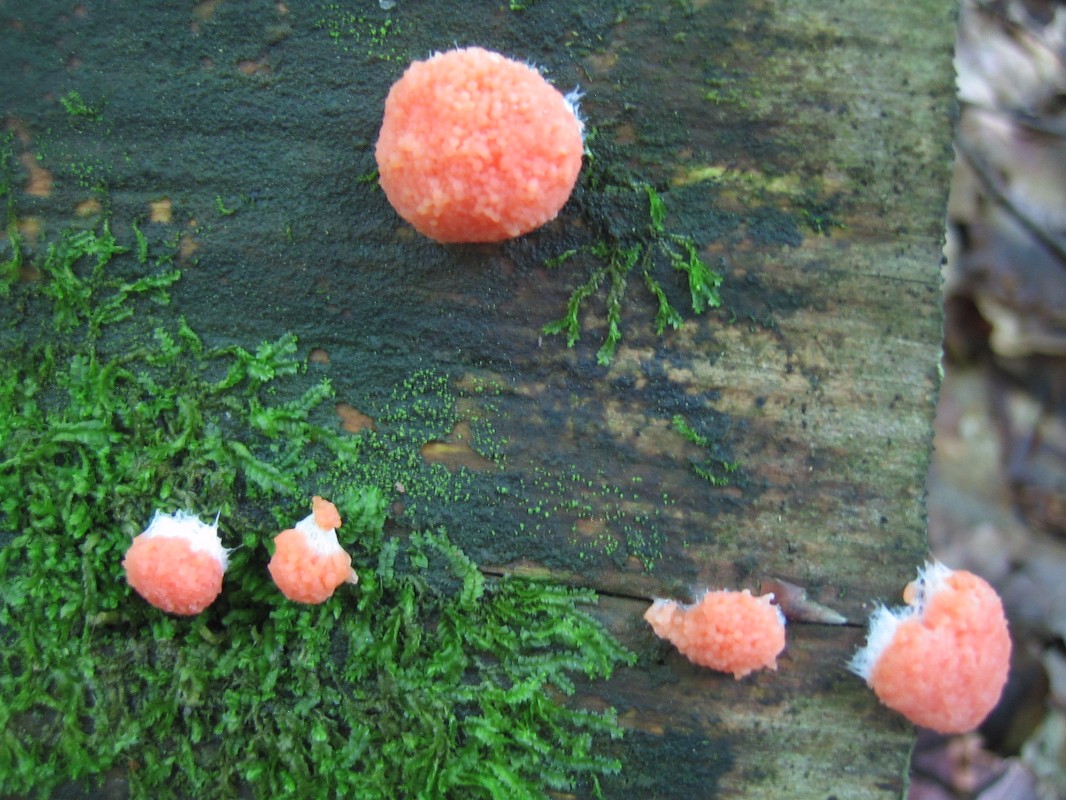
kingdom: Protozoa
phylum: Mycetozoa
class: Myxomycetes
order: Cribrariales
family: Tubiferaceae
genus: Tubifera
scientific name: Tubifera ferruginosa
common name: kanel-støvrør
